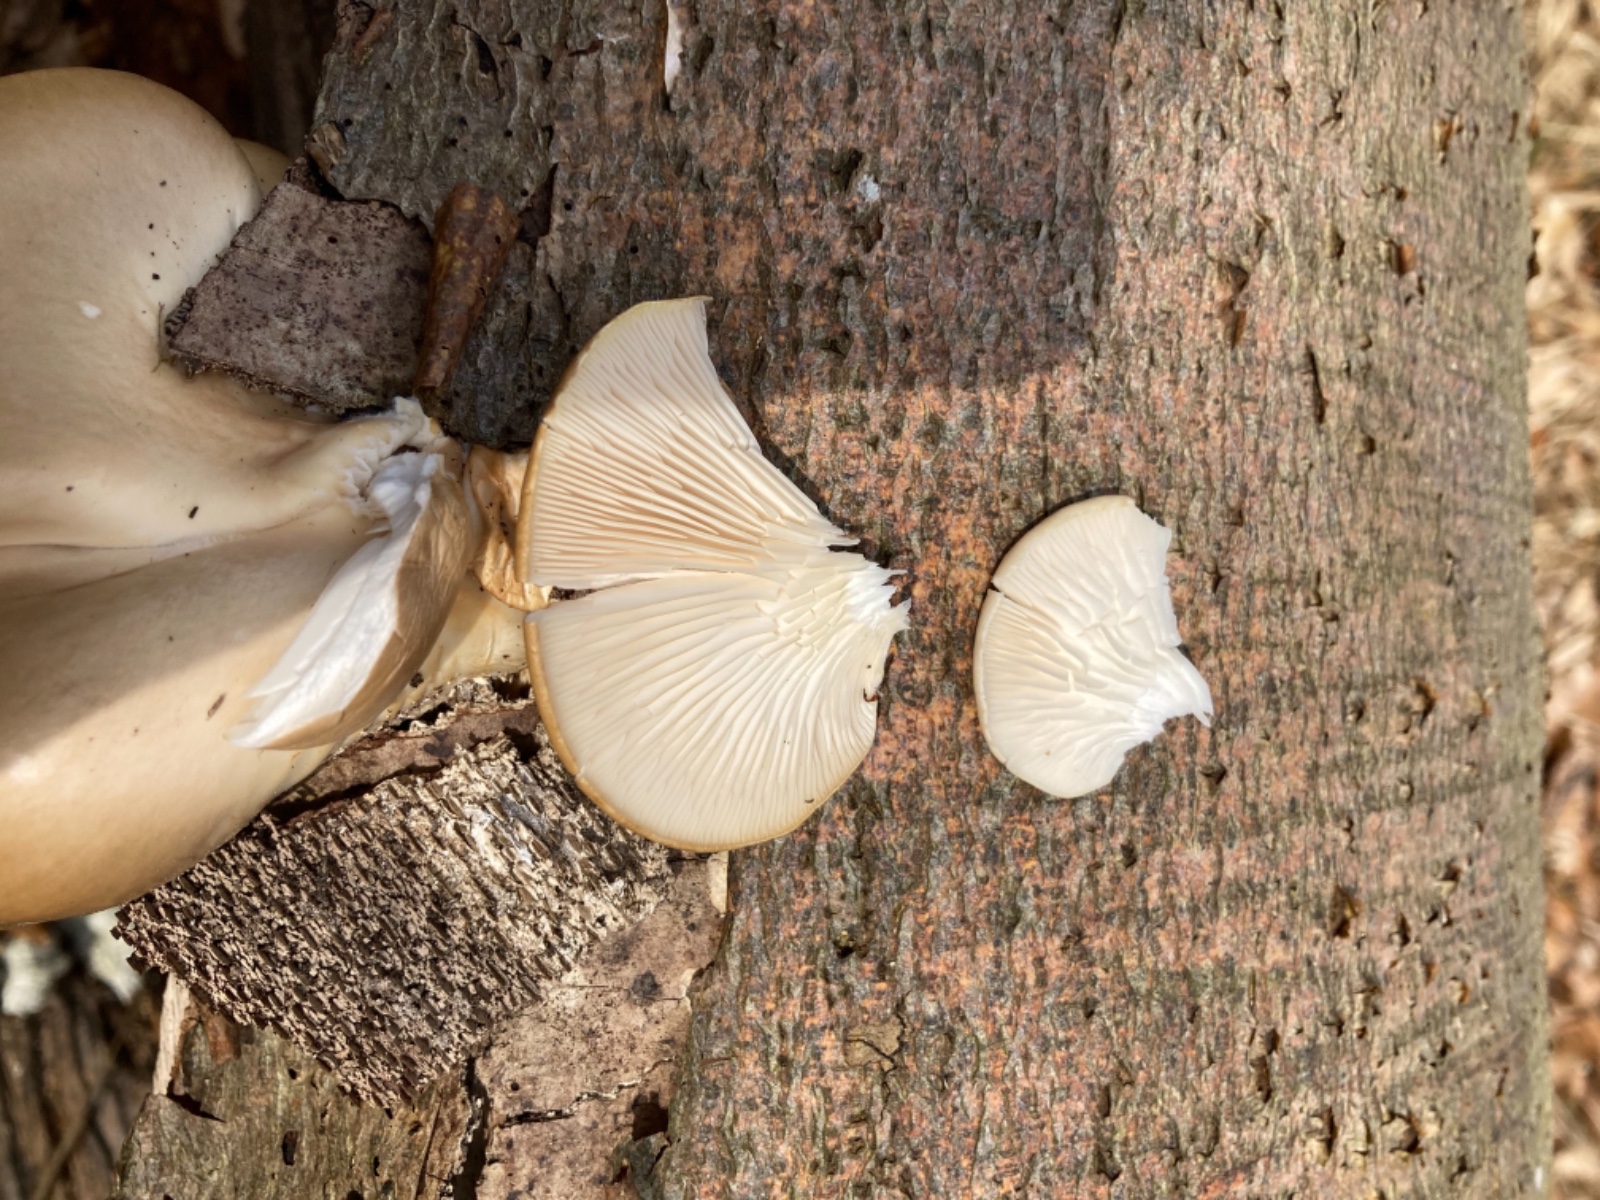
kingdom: Fungi
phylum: Basidiomycota
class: Agaricomycetes
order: Agaricales
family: Pleurotaceae
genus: Pleurotus
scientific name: Pleurotus ostreatus
